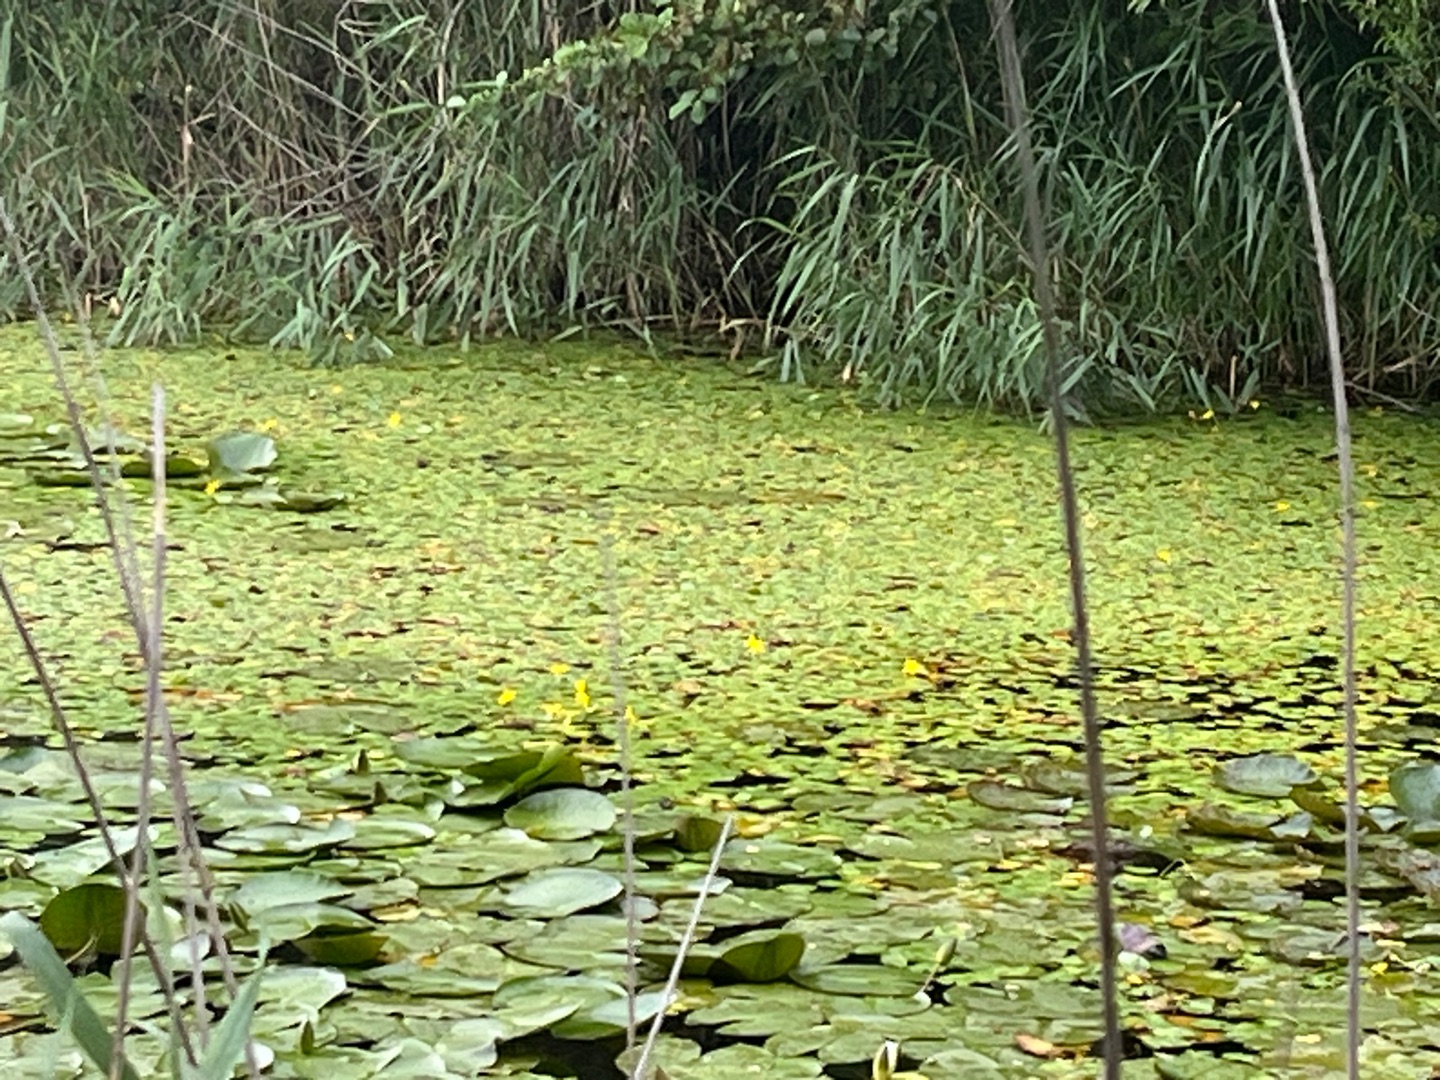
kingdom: Plantae
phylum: Tracheophyta
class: Magnoliopsida
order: Asterales
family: Menyanthaceae
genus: Nymphoides
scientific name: Nymphoides peltata
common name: Søblad
